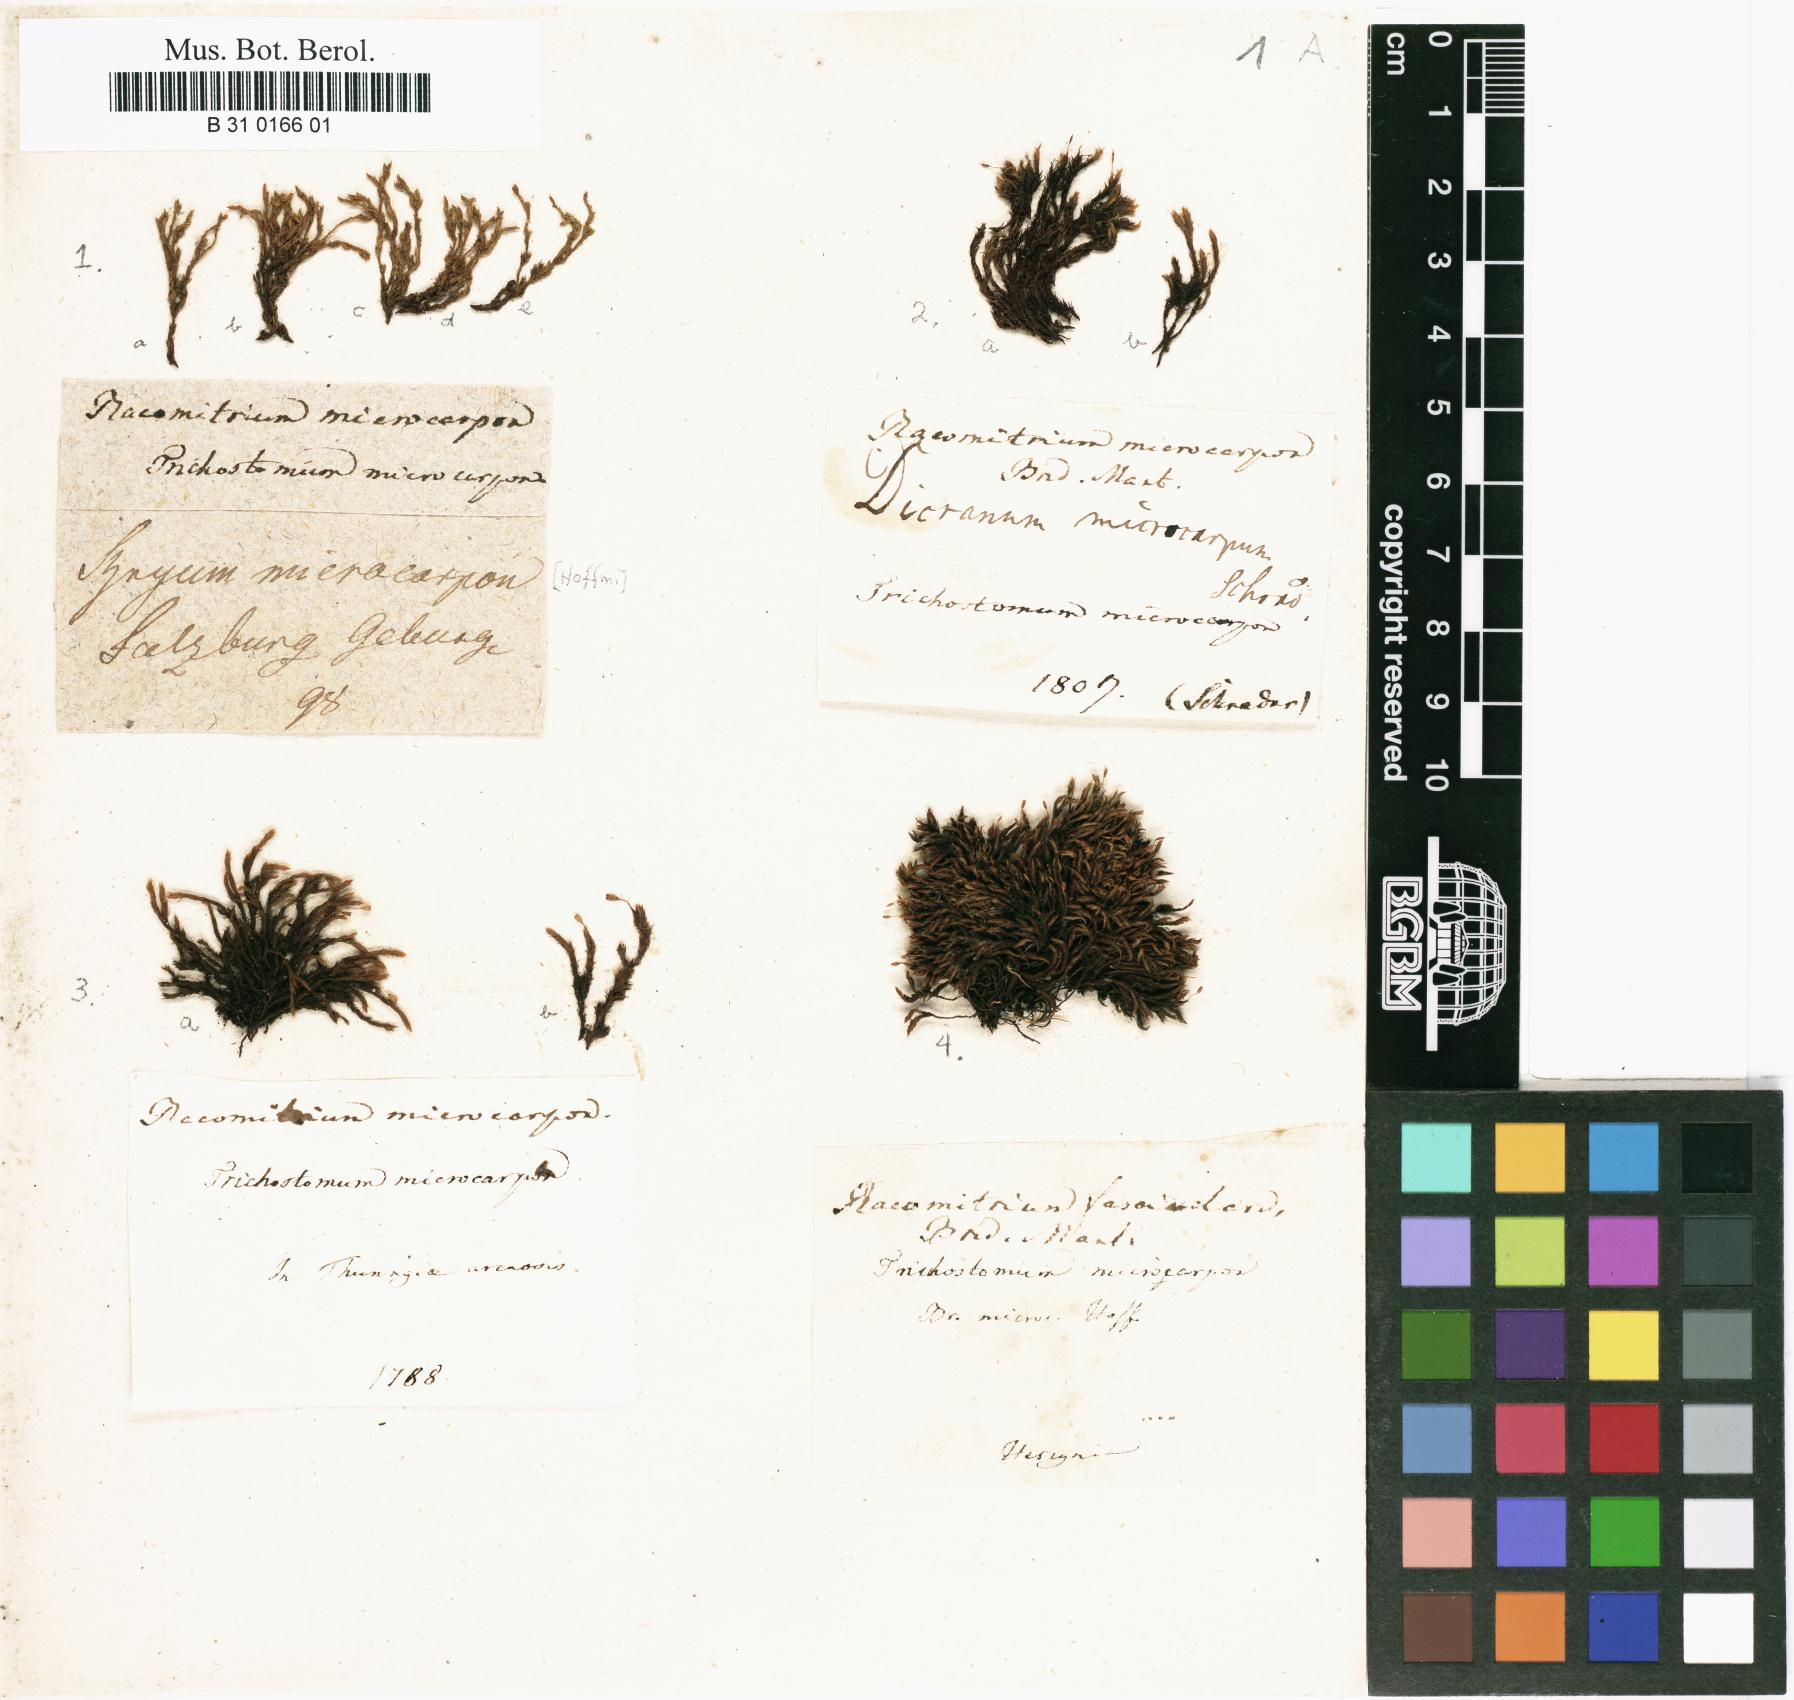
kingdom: Plantae
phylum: Bryophyta
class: Bryopsida
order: Grimmiales
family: Grimmiaceae
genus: Bucklandiella
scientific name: Bucklandiella microcarpos
